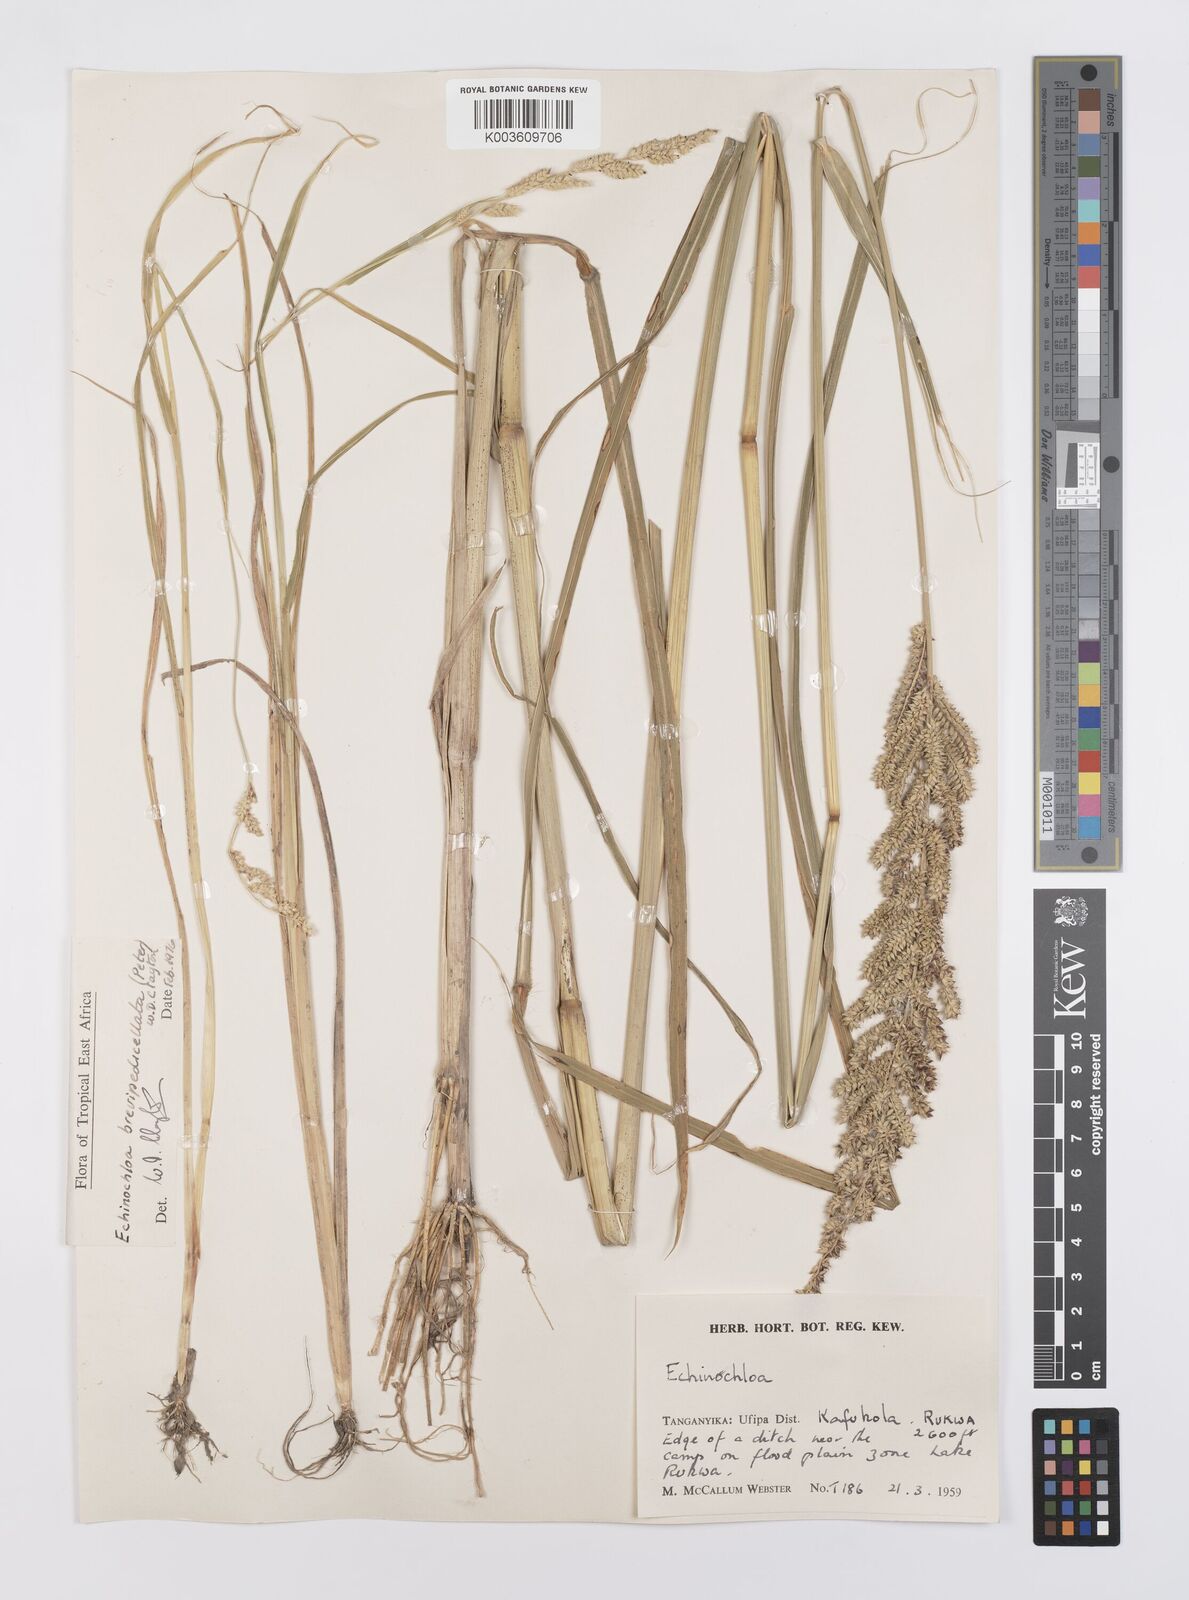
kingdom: Plantae
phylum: Tracheophyta
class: Liliopsida
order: Poales
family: Poaceae
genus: Echinochloa
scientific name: Echinochloa brevipedicellata
